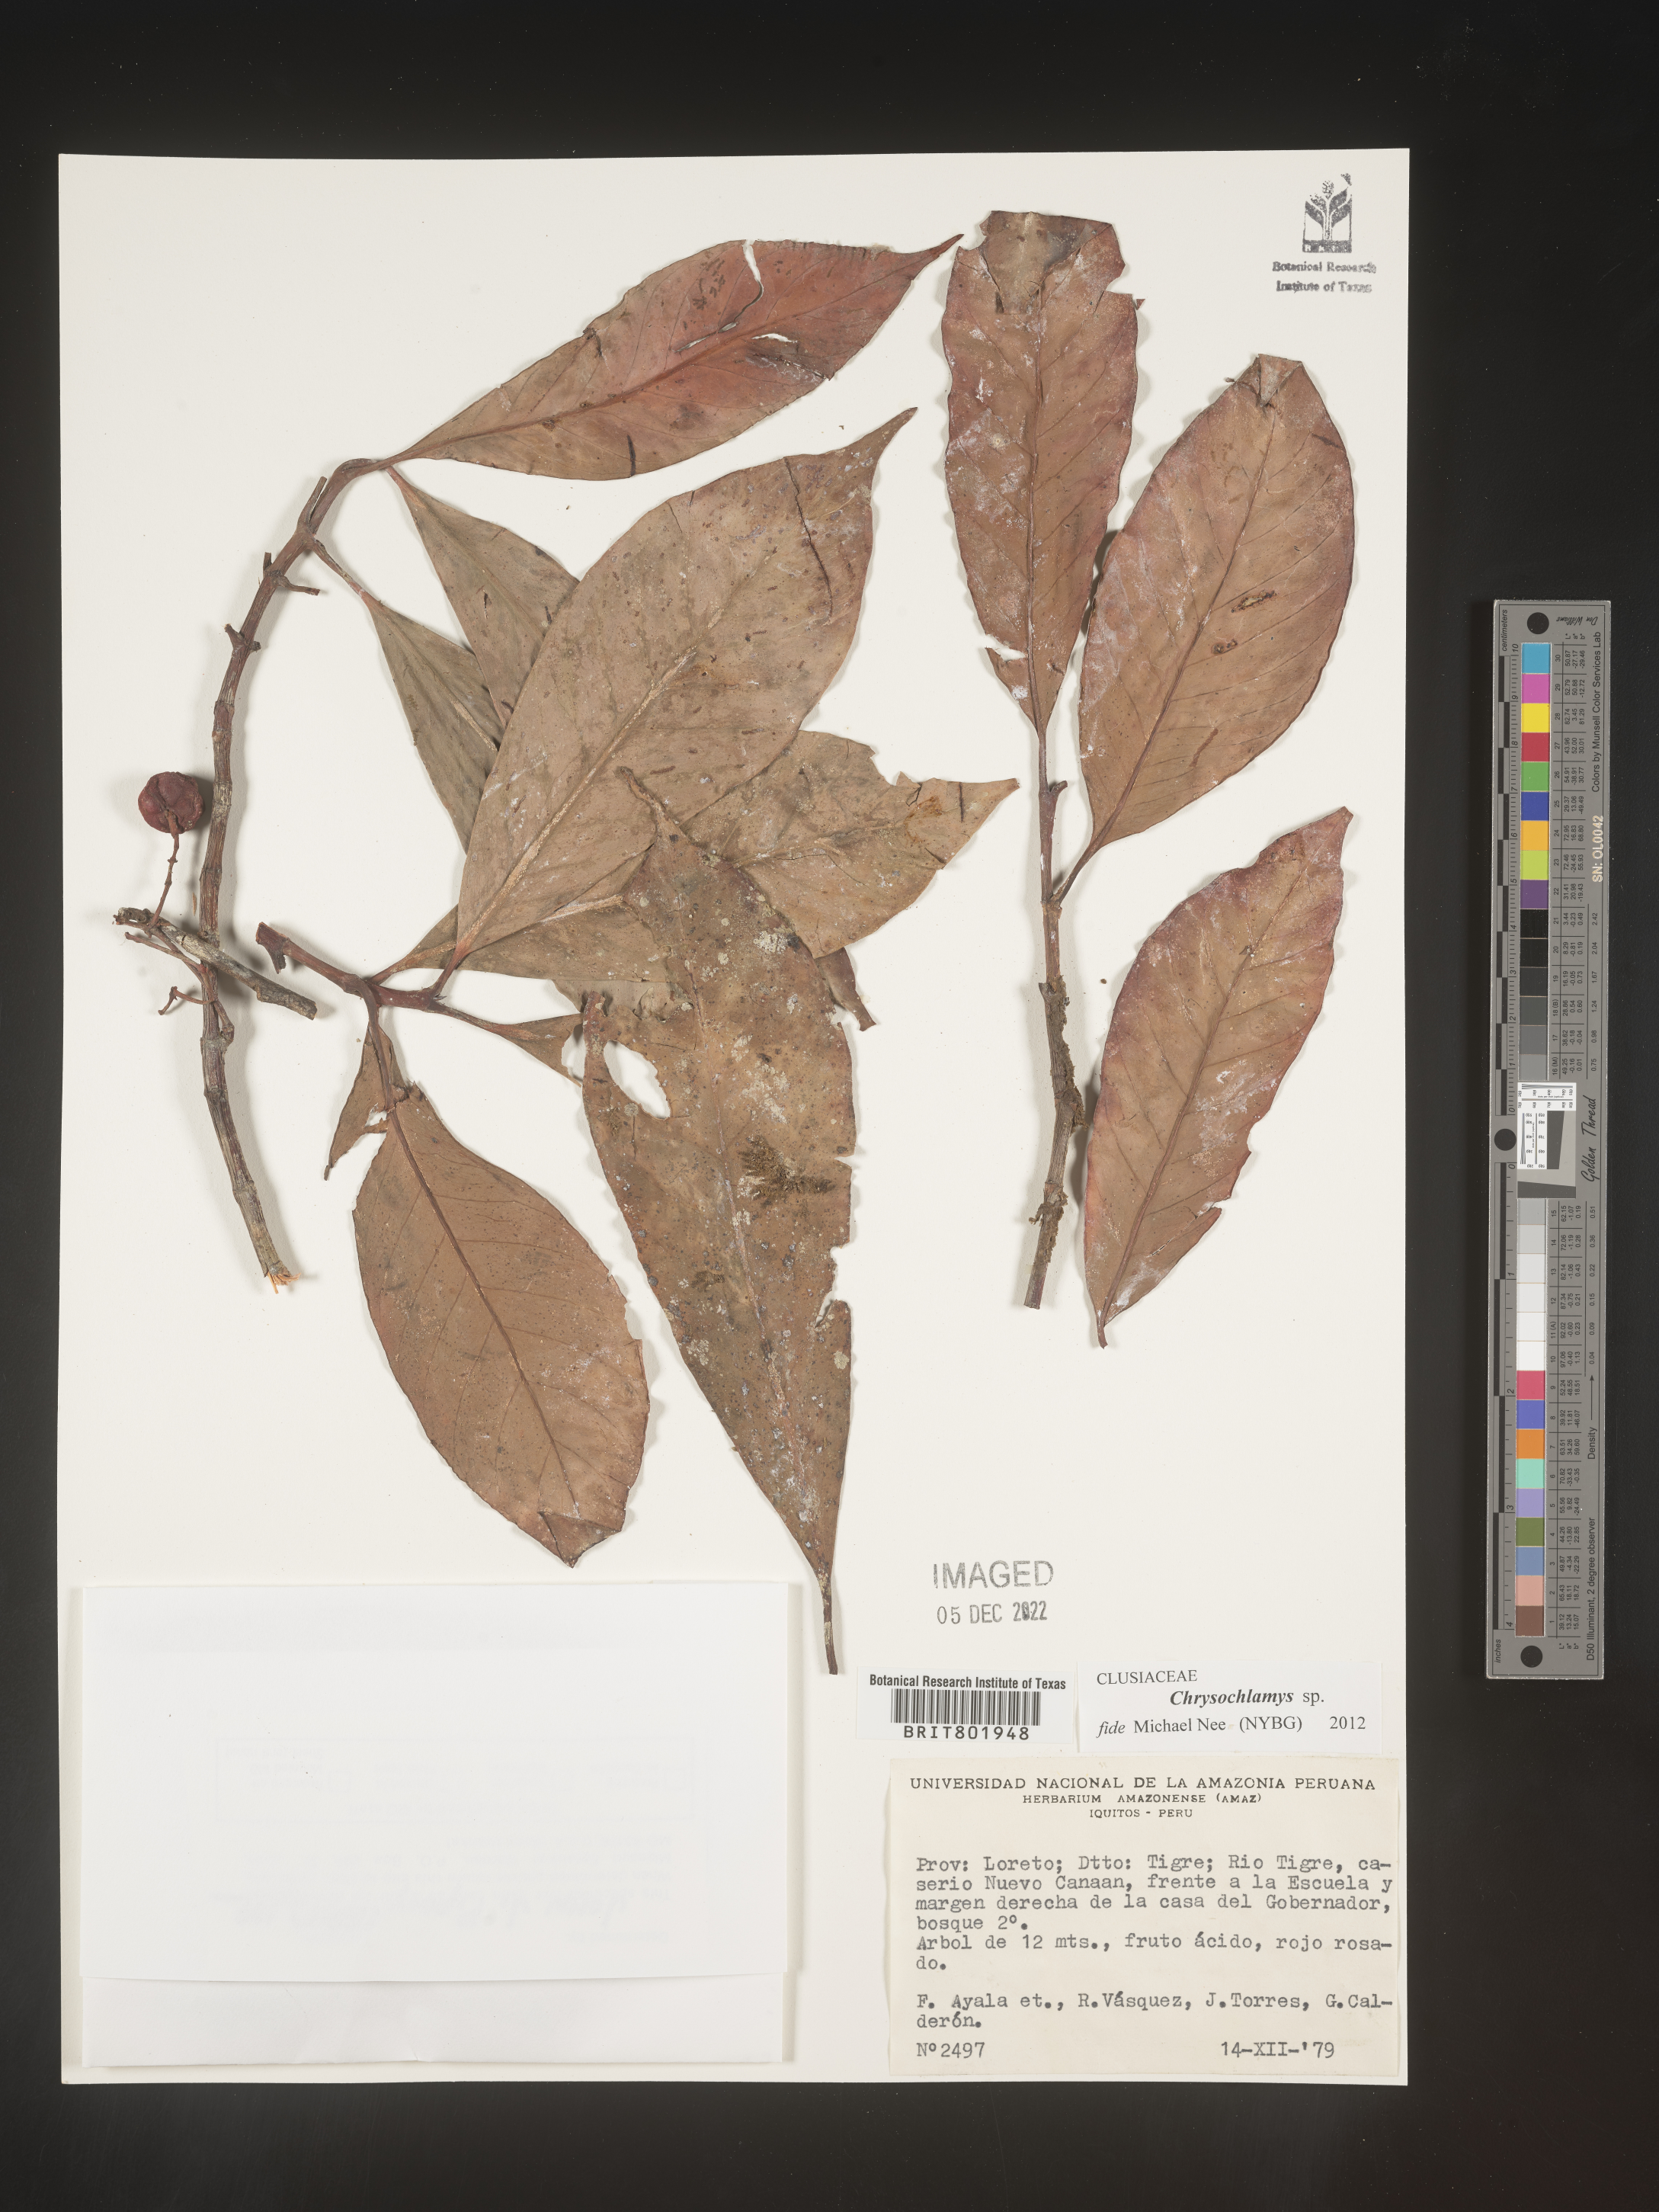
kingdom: Plantae
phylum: Tracheophyta
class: Magnoliopsida
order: Malpighiales
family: Clusiaceae
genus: Chrysochlamys
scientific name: Chrysochlamys
